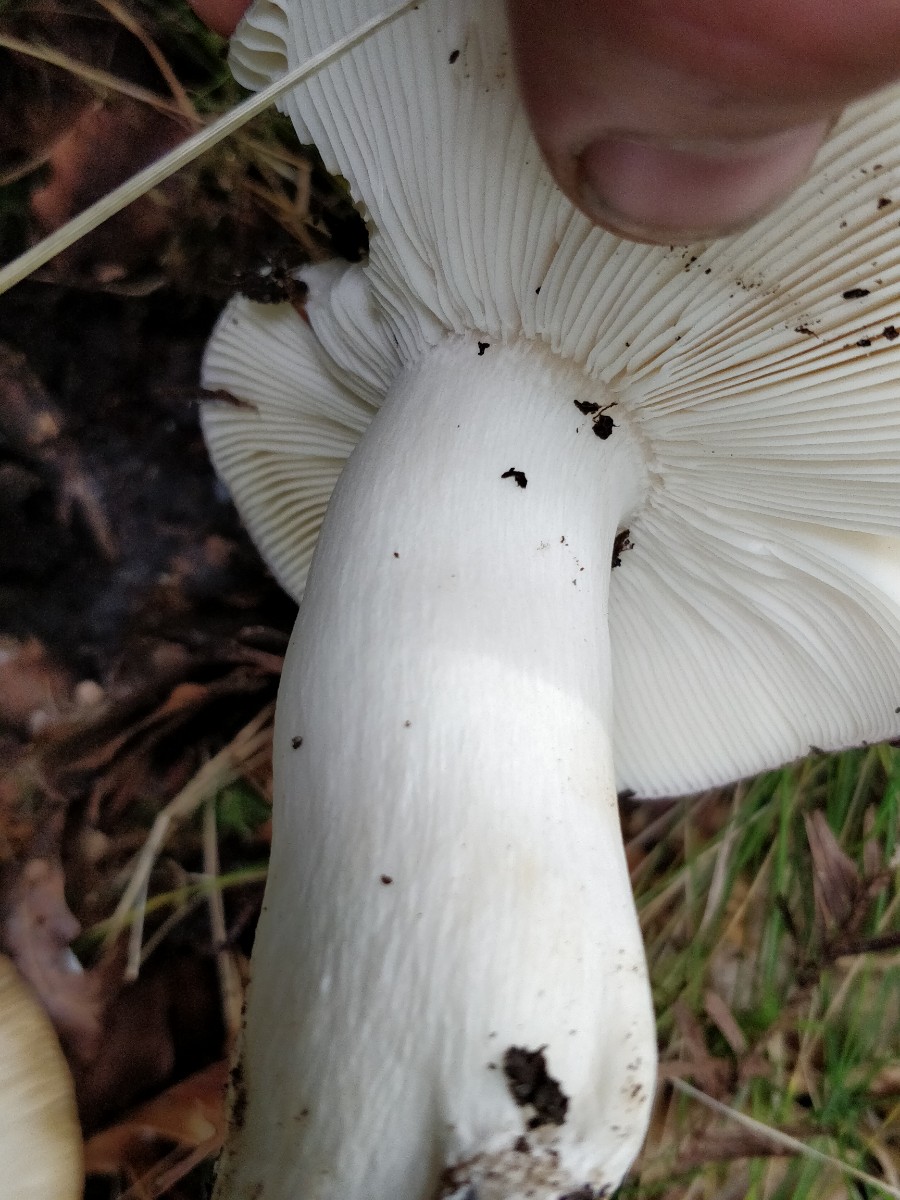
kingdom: Fungi
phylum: Basidiomycota
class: Agaricomycetes
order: Russulales
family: Russulaceae
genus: Russula
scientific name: Russula cyanoxantha
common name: broget skørhat
